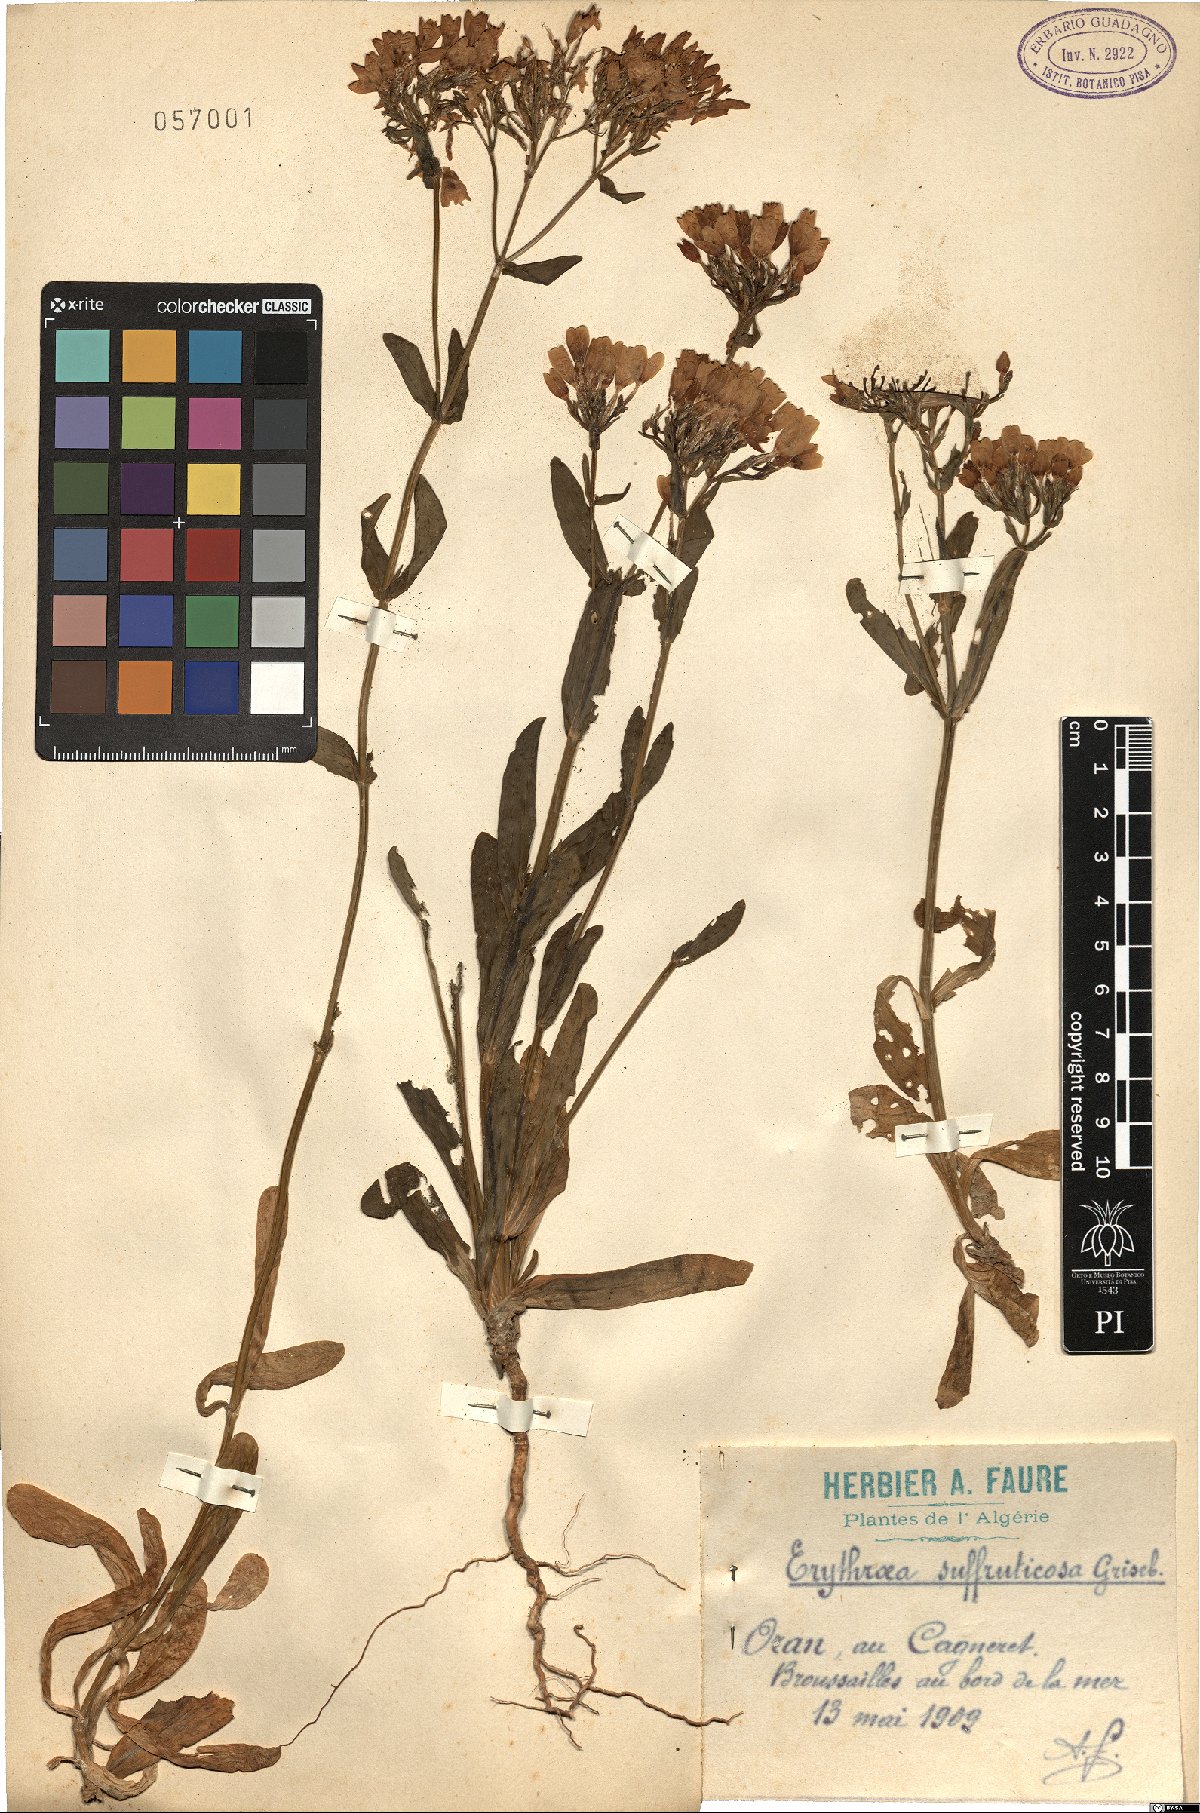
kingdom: Plantae
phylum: Tracheophyta
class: Magnoliopsida
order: Gentianales
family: Gentianaceae
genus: Centaurium
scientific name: Centaurium suffruticosum
